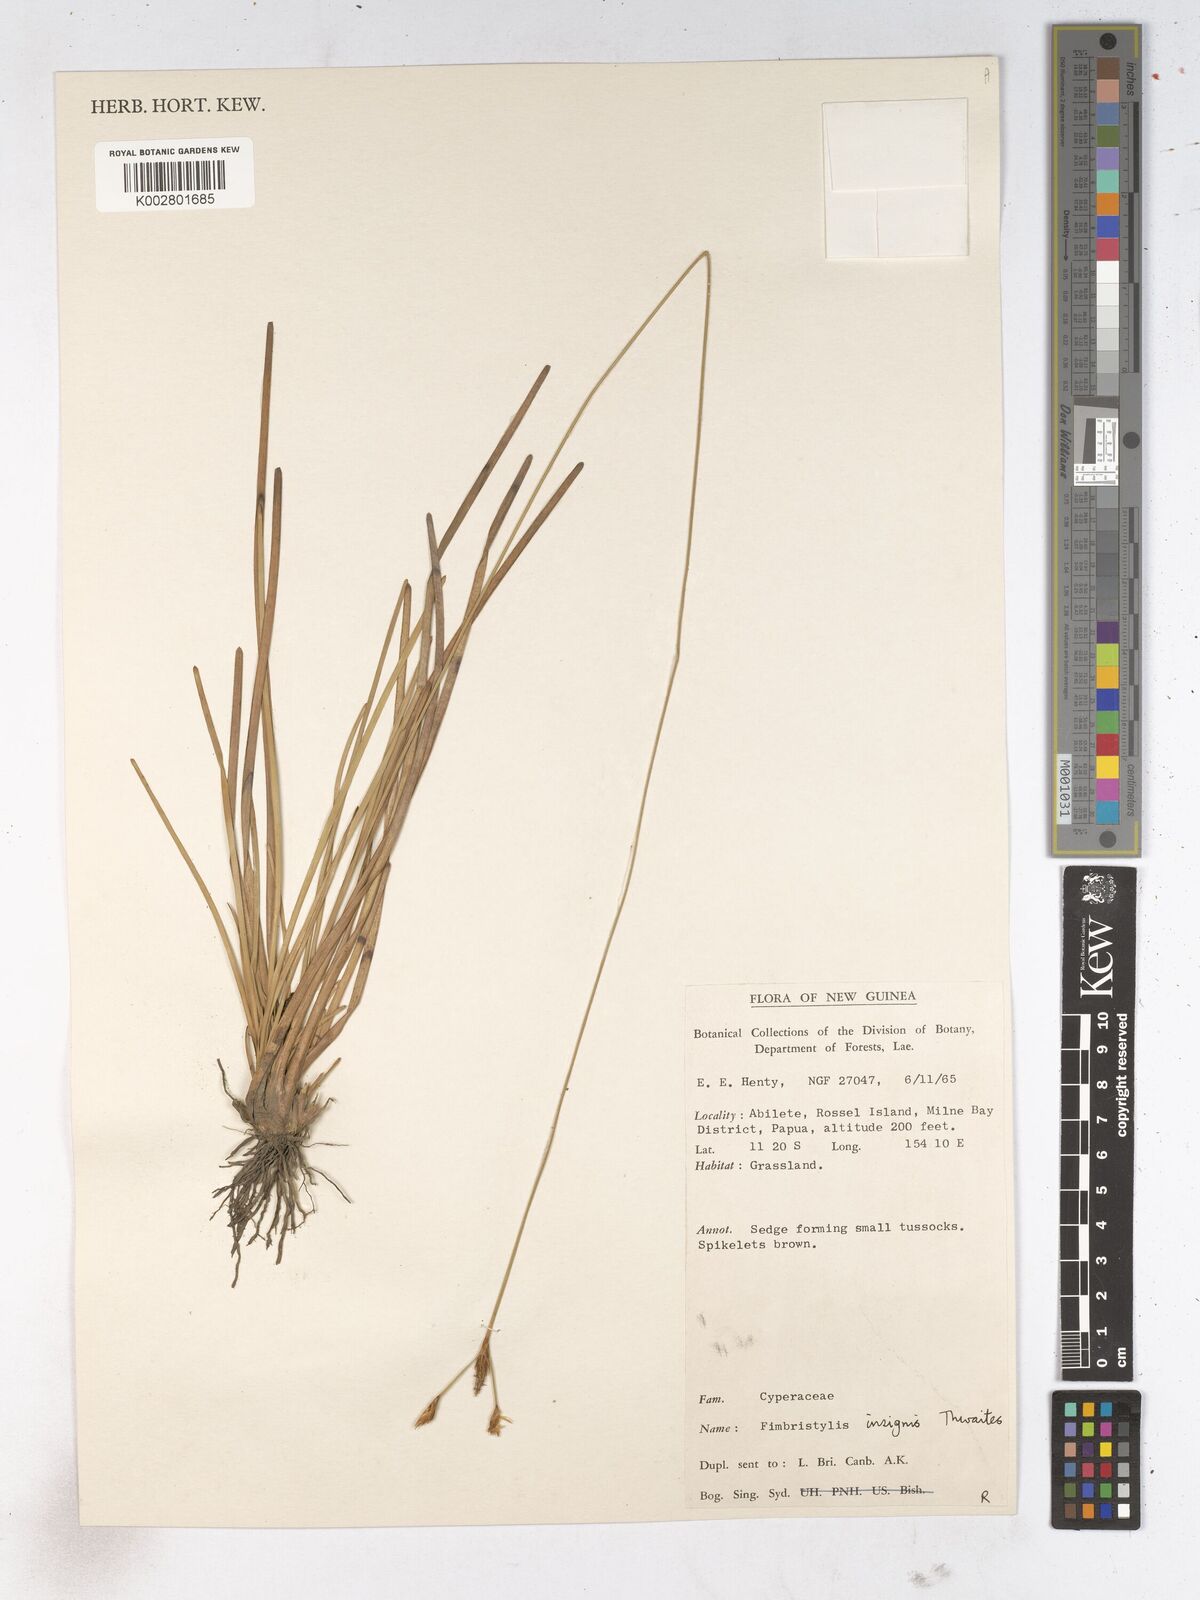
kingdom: Plantae
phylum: Tracheophyta
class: Liliopsida
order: Poales
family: Cyperaceae
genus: Fimbristylis
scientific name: Fimbristylis insignis
